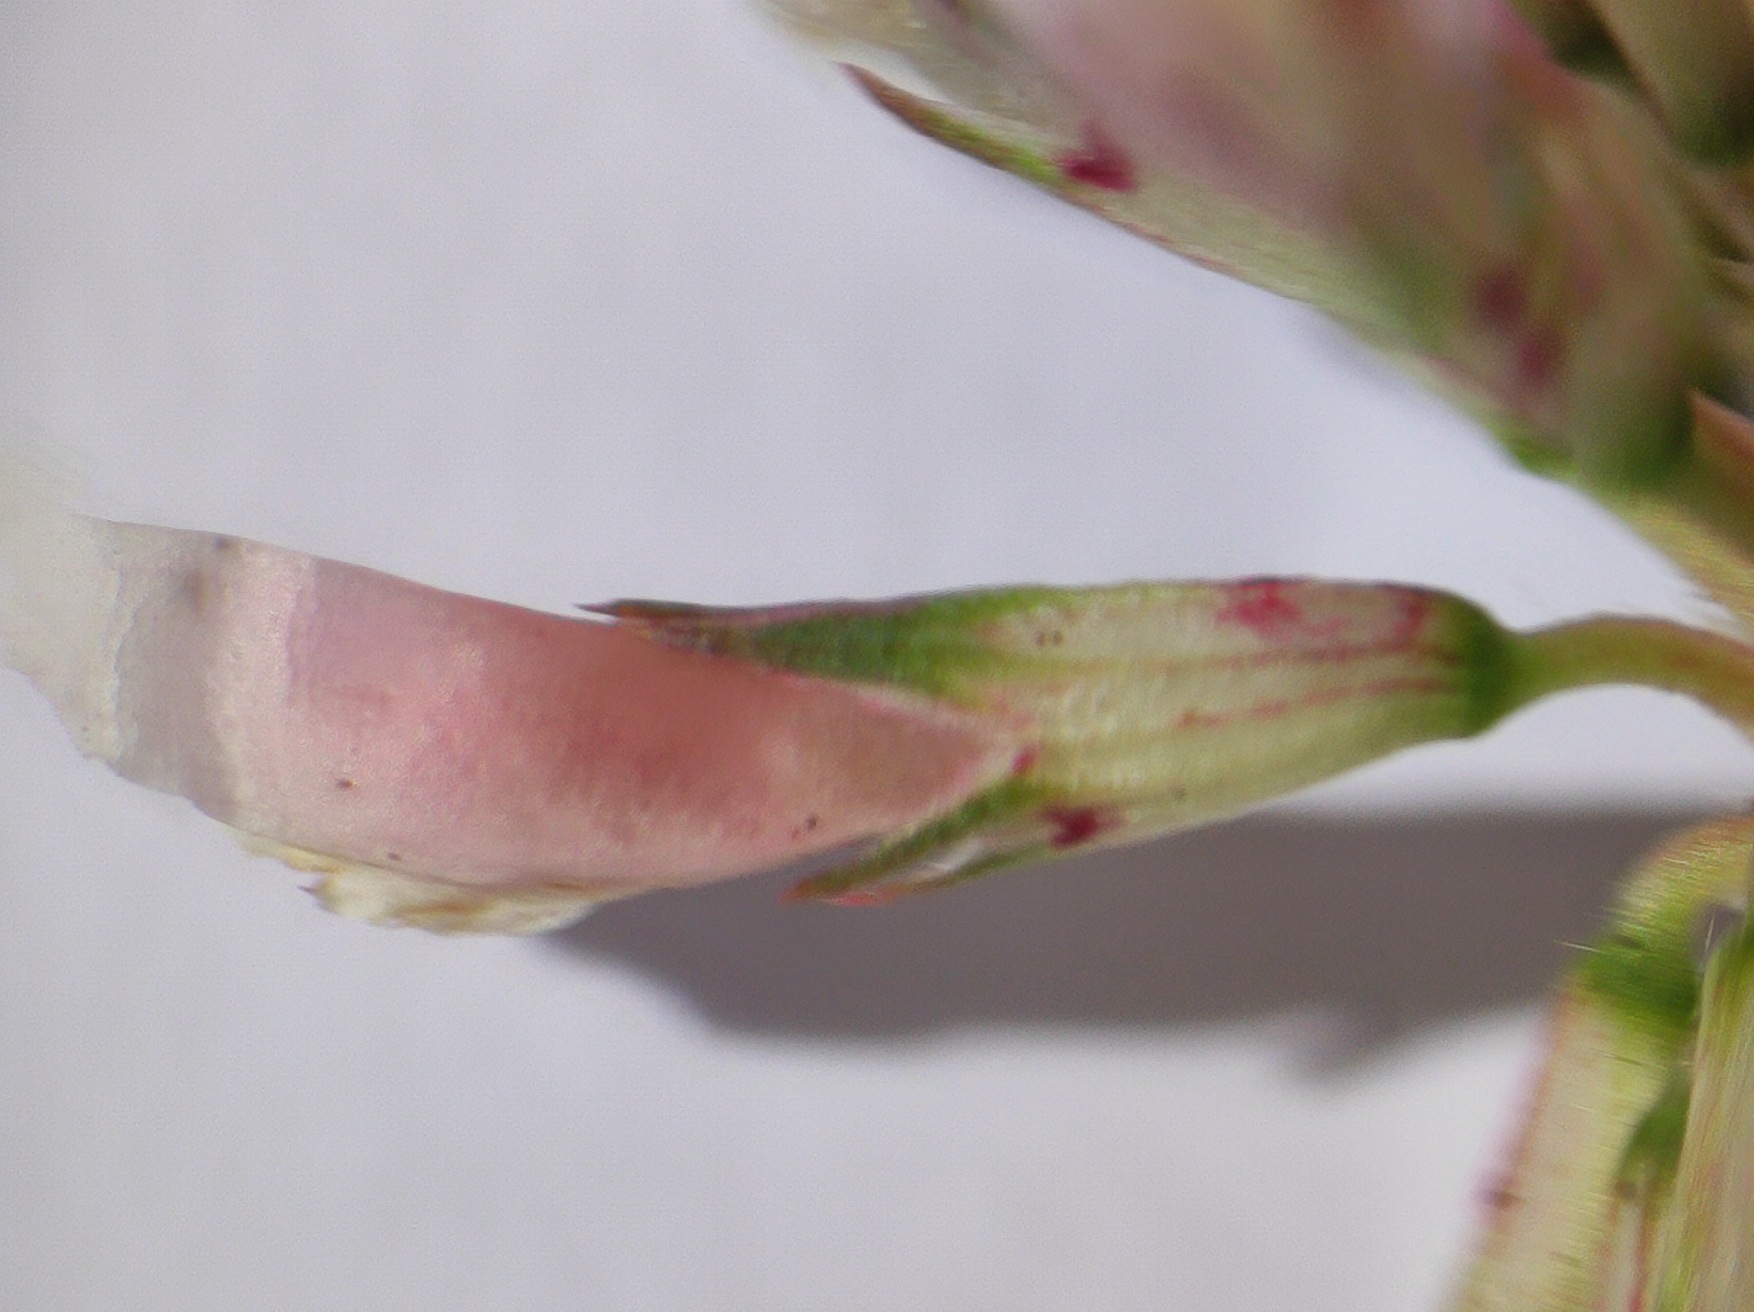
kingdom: Plantae
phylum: Tracheophyta
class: Magnoliopsida
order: Fabales
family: Fabaceae
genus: Trifolium
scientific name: Trifolium repens
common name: Hvid-kløver
